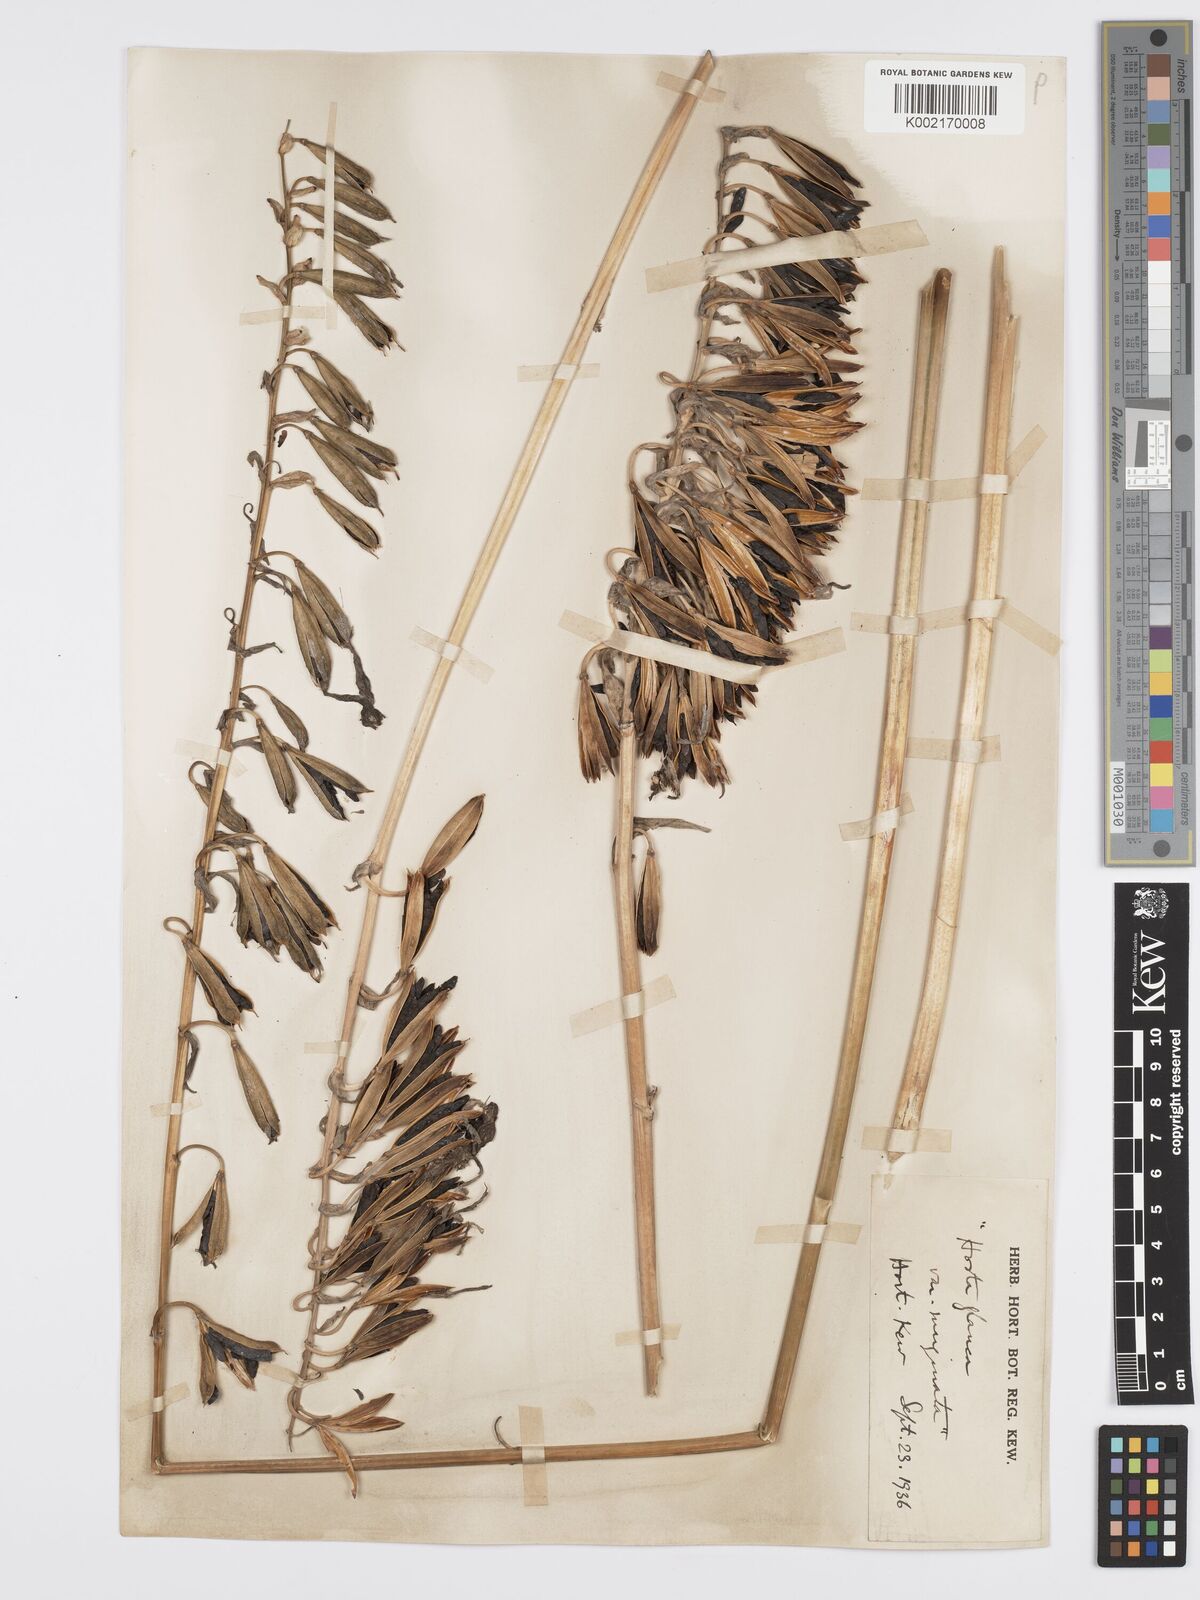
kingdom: Plantae
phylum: Tracheophyta
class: Liliopsida
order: Asparagales
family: Asparagaceae
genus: Hosta
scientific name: Hosta sieboldiana
